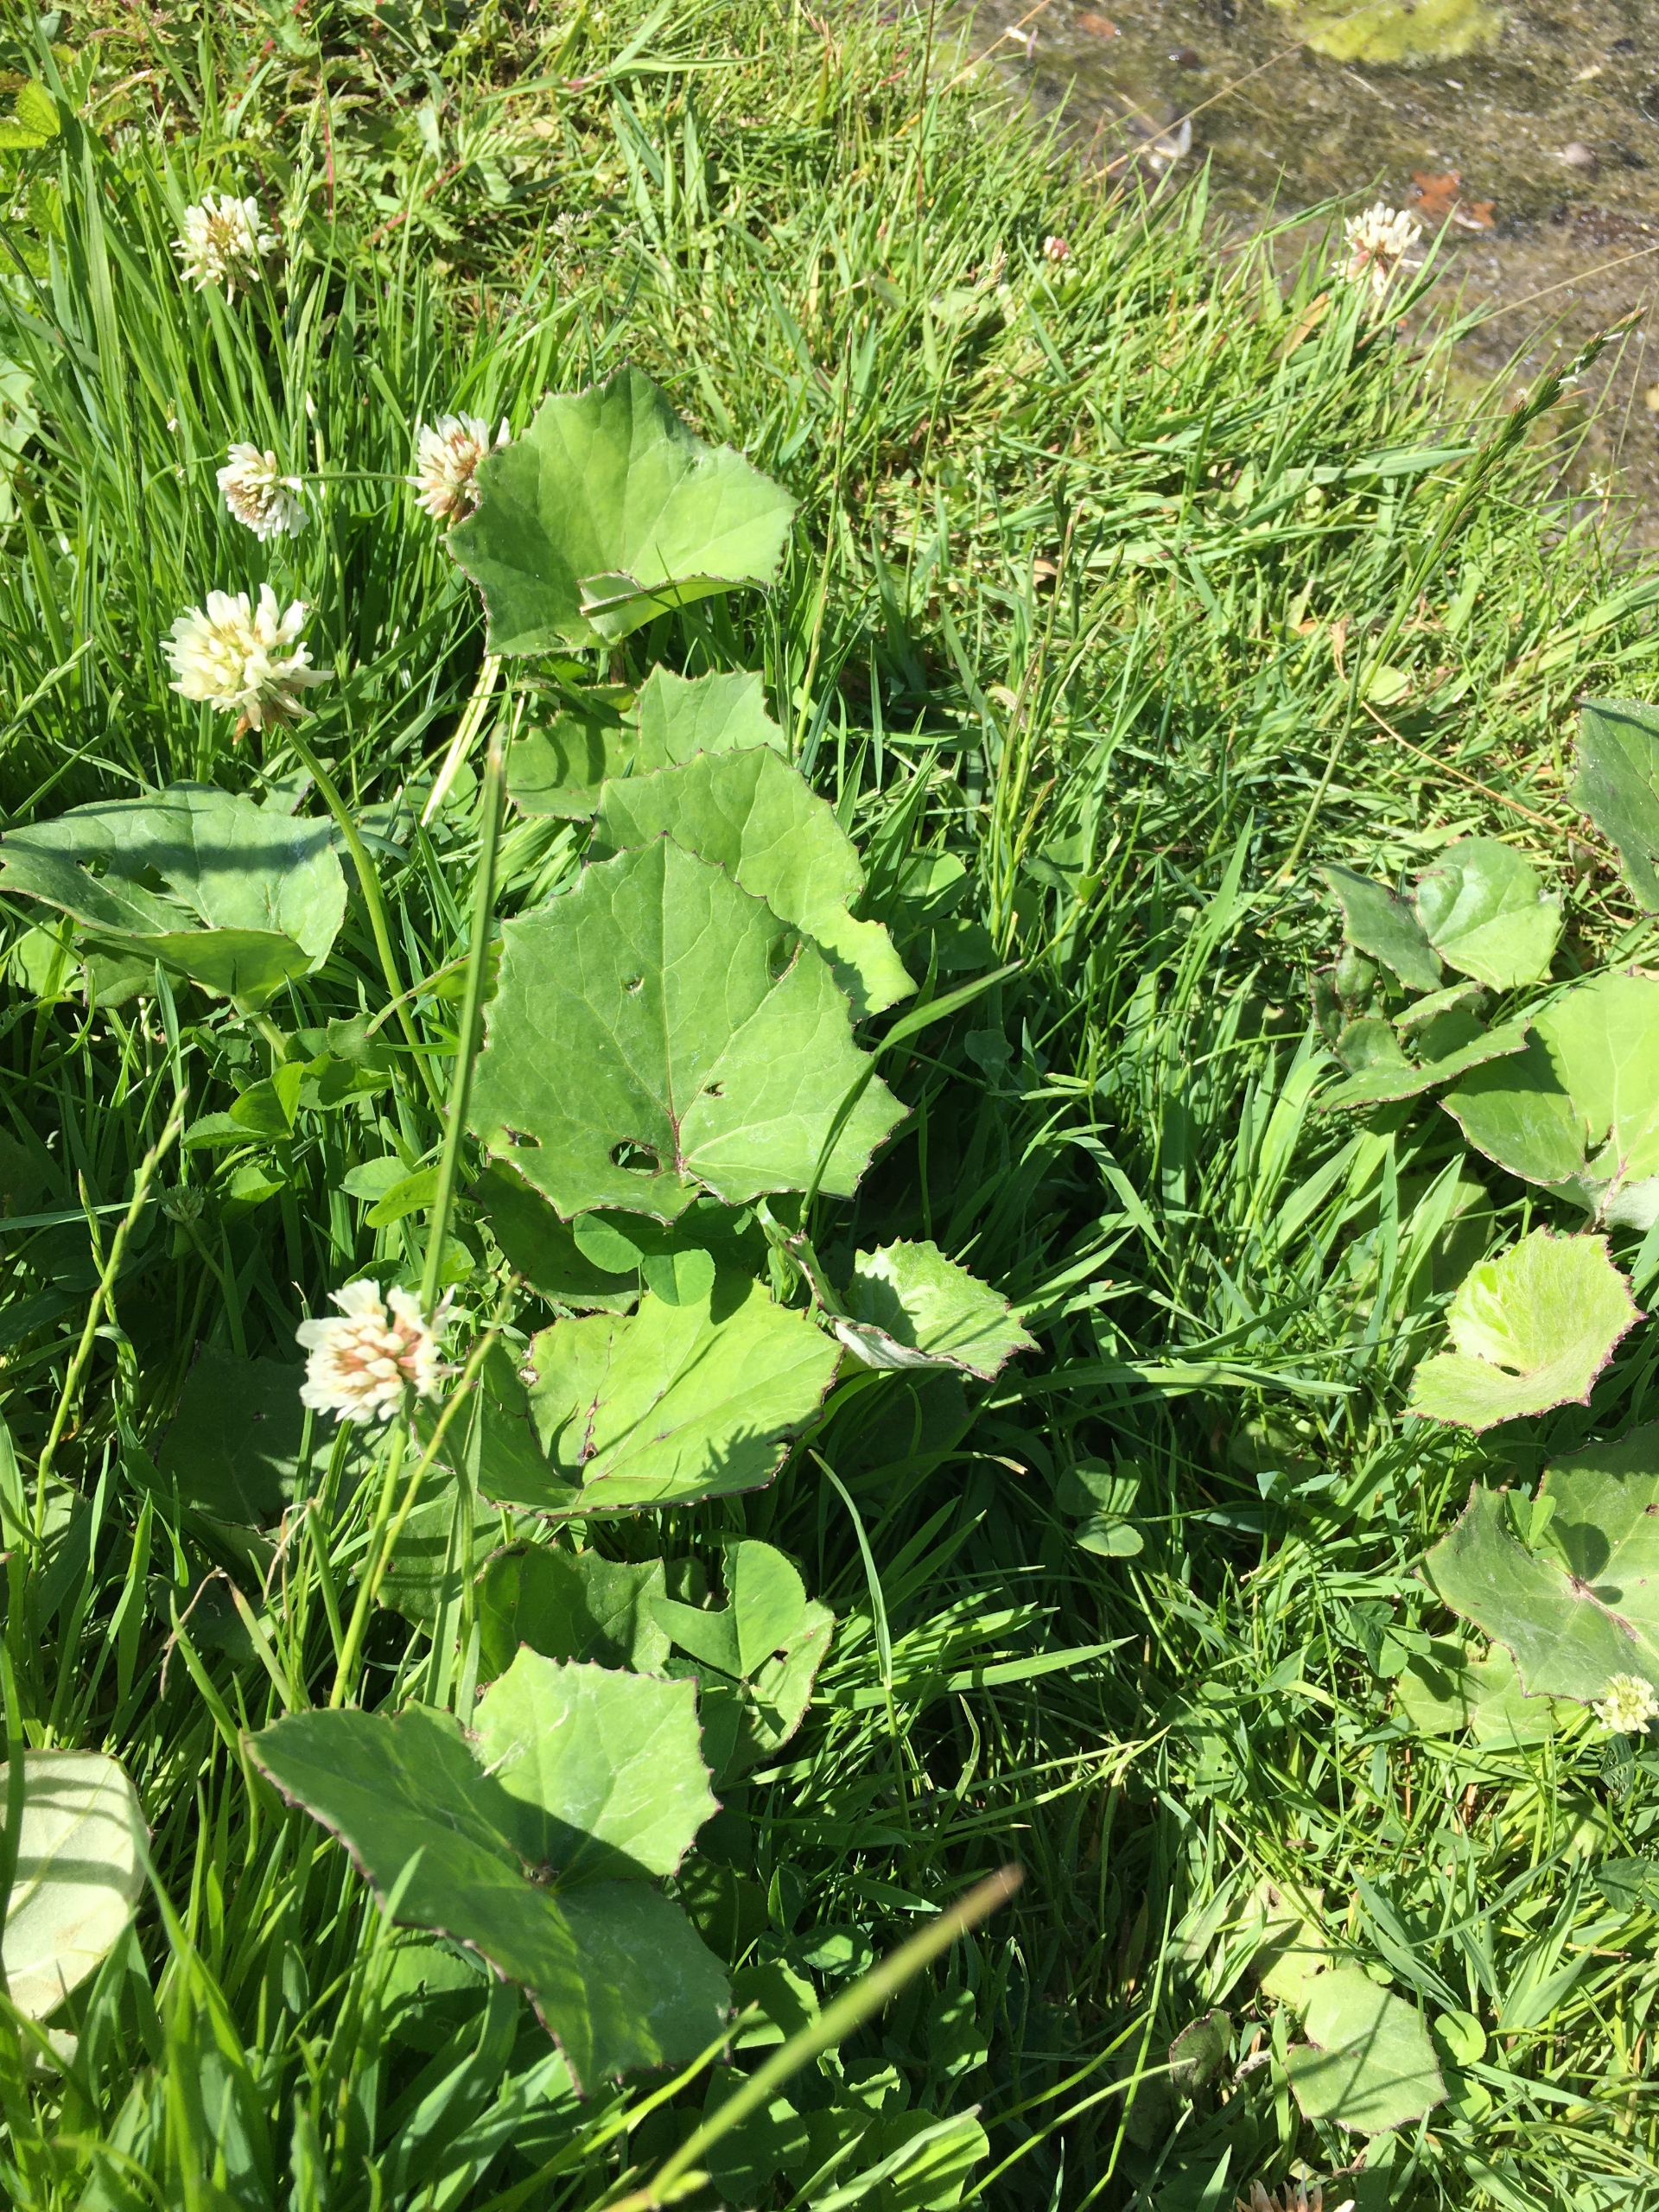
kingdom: Plantae
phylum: Tracheophyta
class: Magnoliopsida
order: Asterales
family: Asteraceae
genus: Tussilago
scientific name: Tussilago farfara
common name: Følfod
